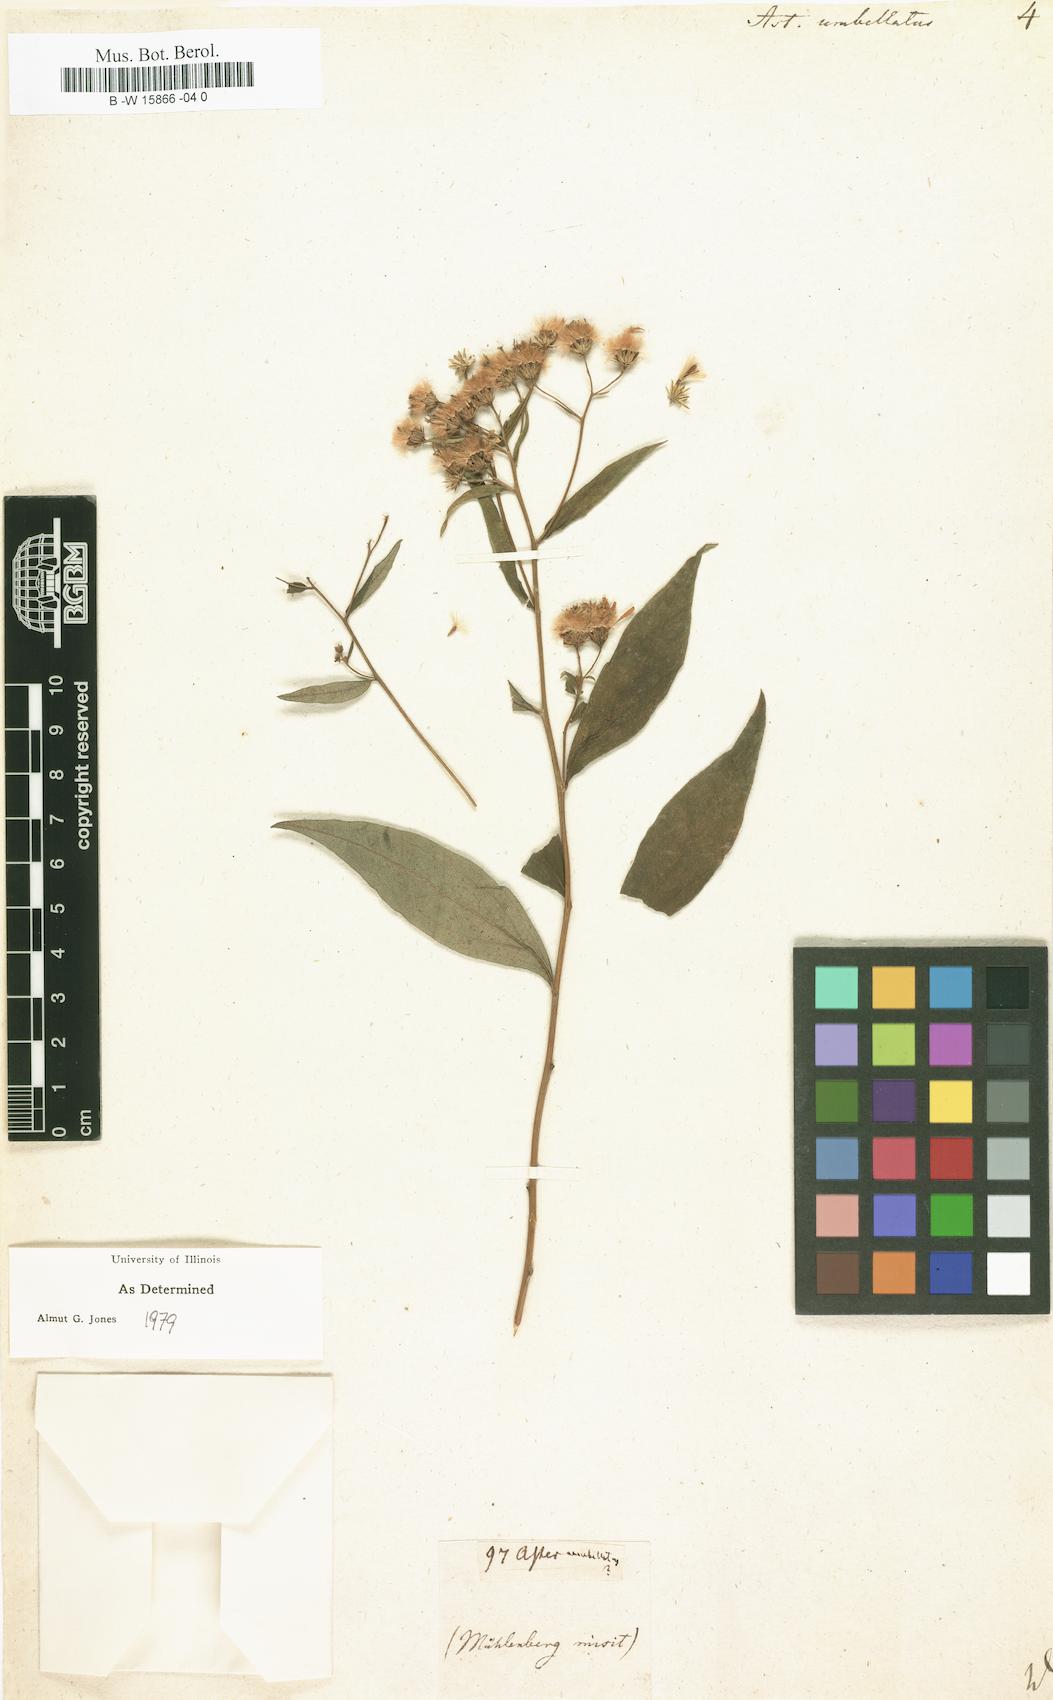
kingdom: Plantae
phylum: Tracheophyta
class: Magnoliopsida
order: Asterales
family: Asteraceae
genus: Doellingeria
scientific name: Doellingeria umbellata
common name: Flat-top white aster
